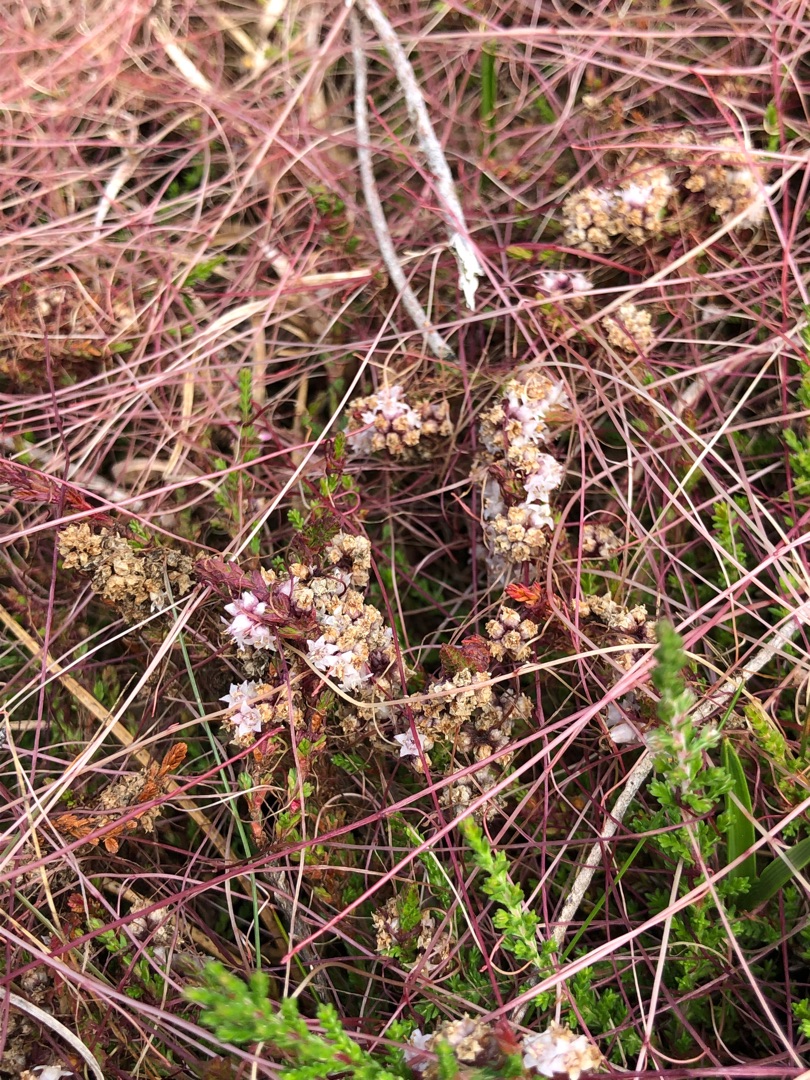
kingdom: Plantae
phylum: Tracheophyta
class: Magnoliopsida
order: Solanales
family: Convolvulaceae
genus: Cuscuta
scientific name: Cuscuta epithymum
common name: Lyng-silke
